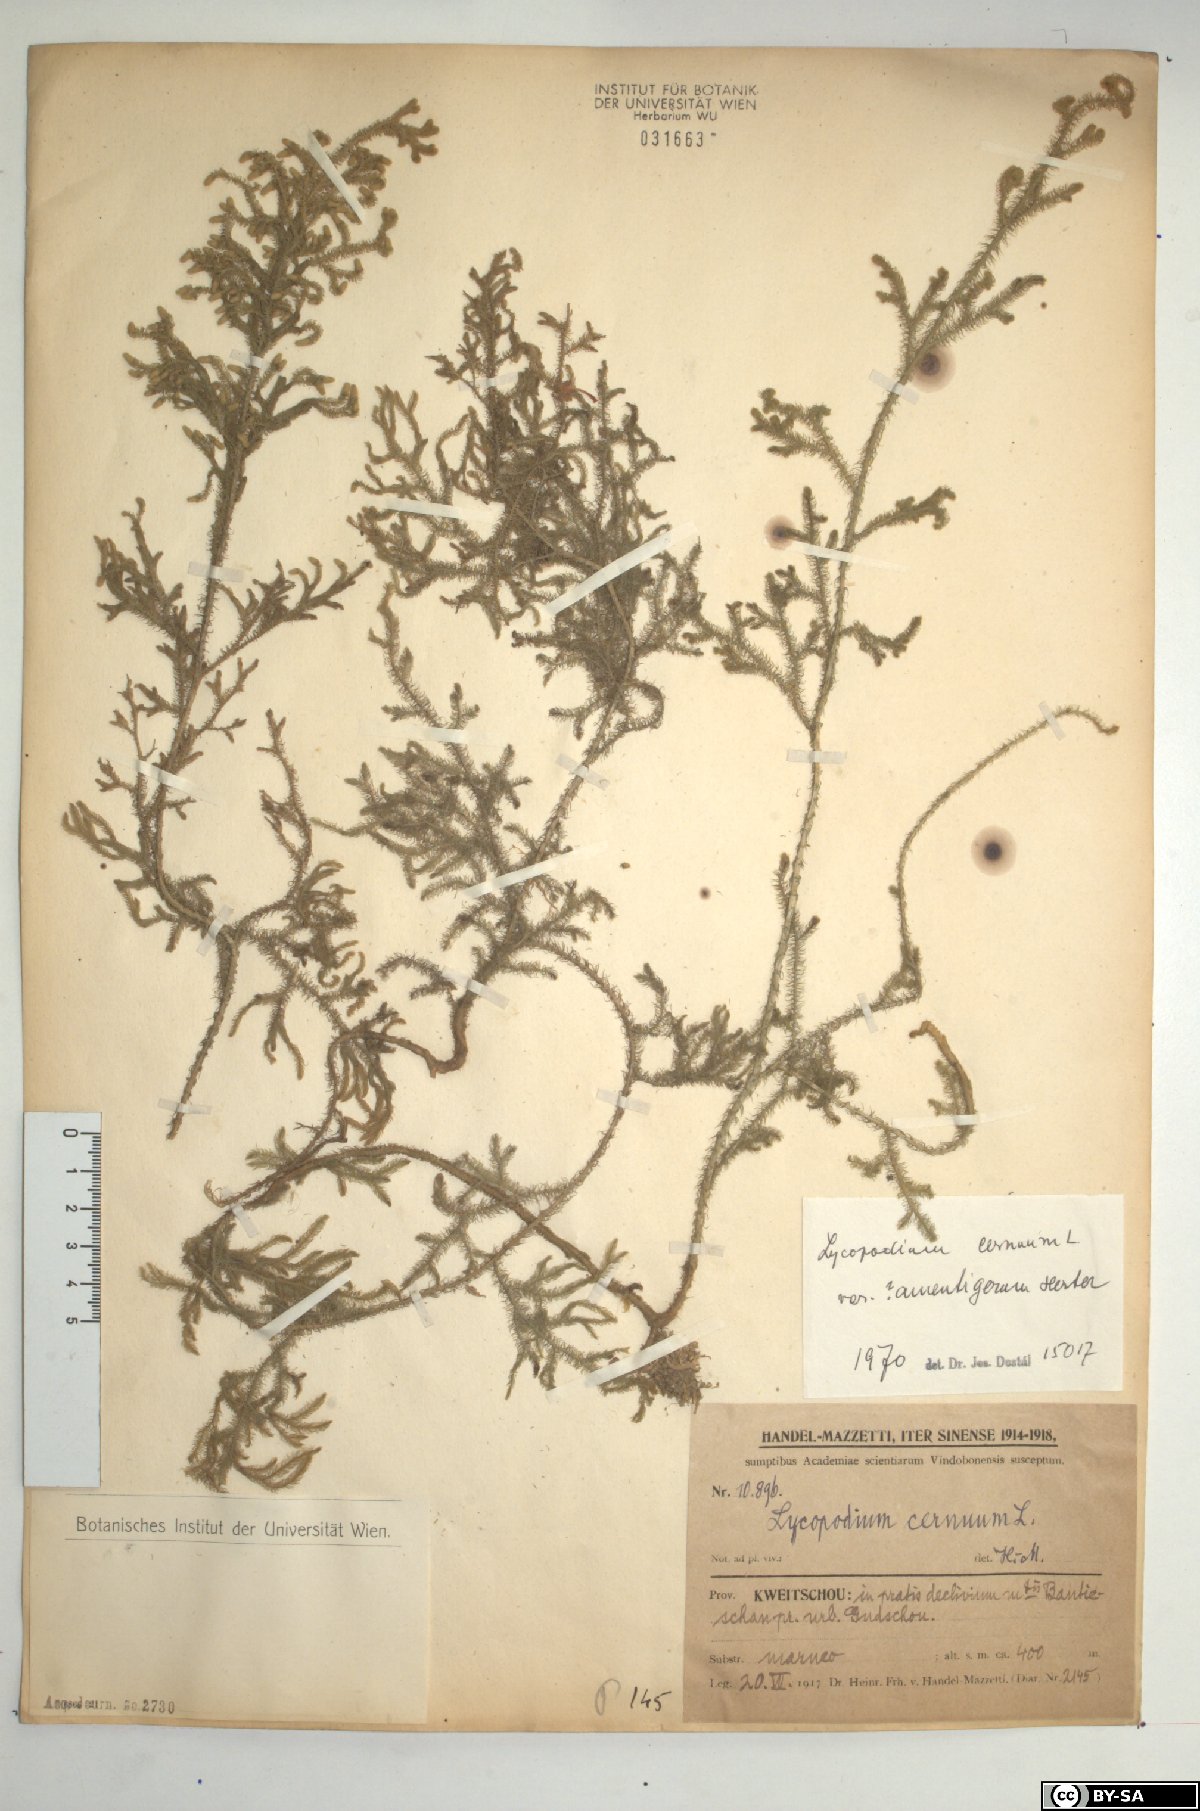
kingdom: Plantae
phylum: Tracheophyta
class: Lycopodiopsida
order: Lycopodiales
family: Lycopodiaceae
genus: Palhinhaea
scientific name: Palhinhaea cernua
